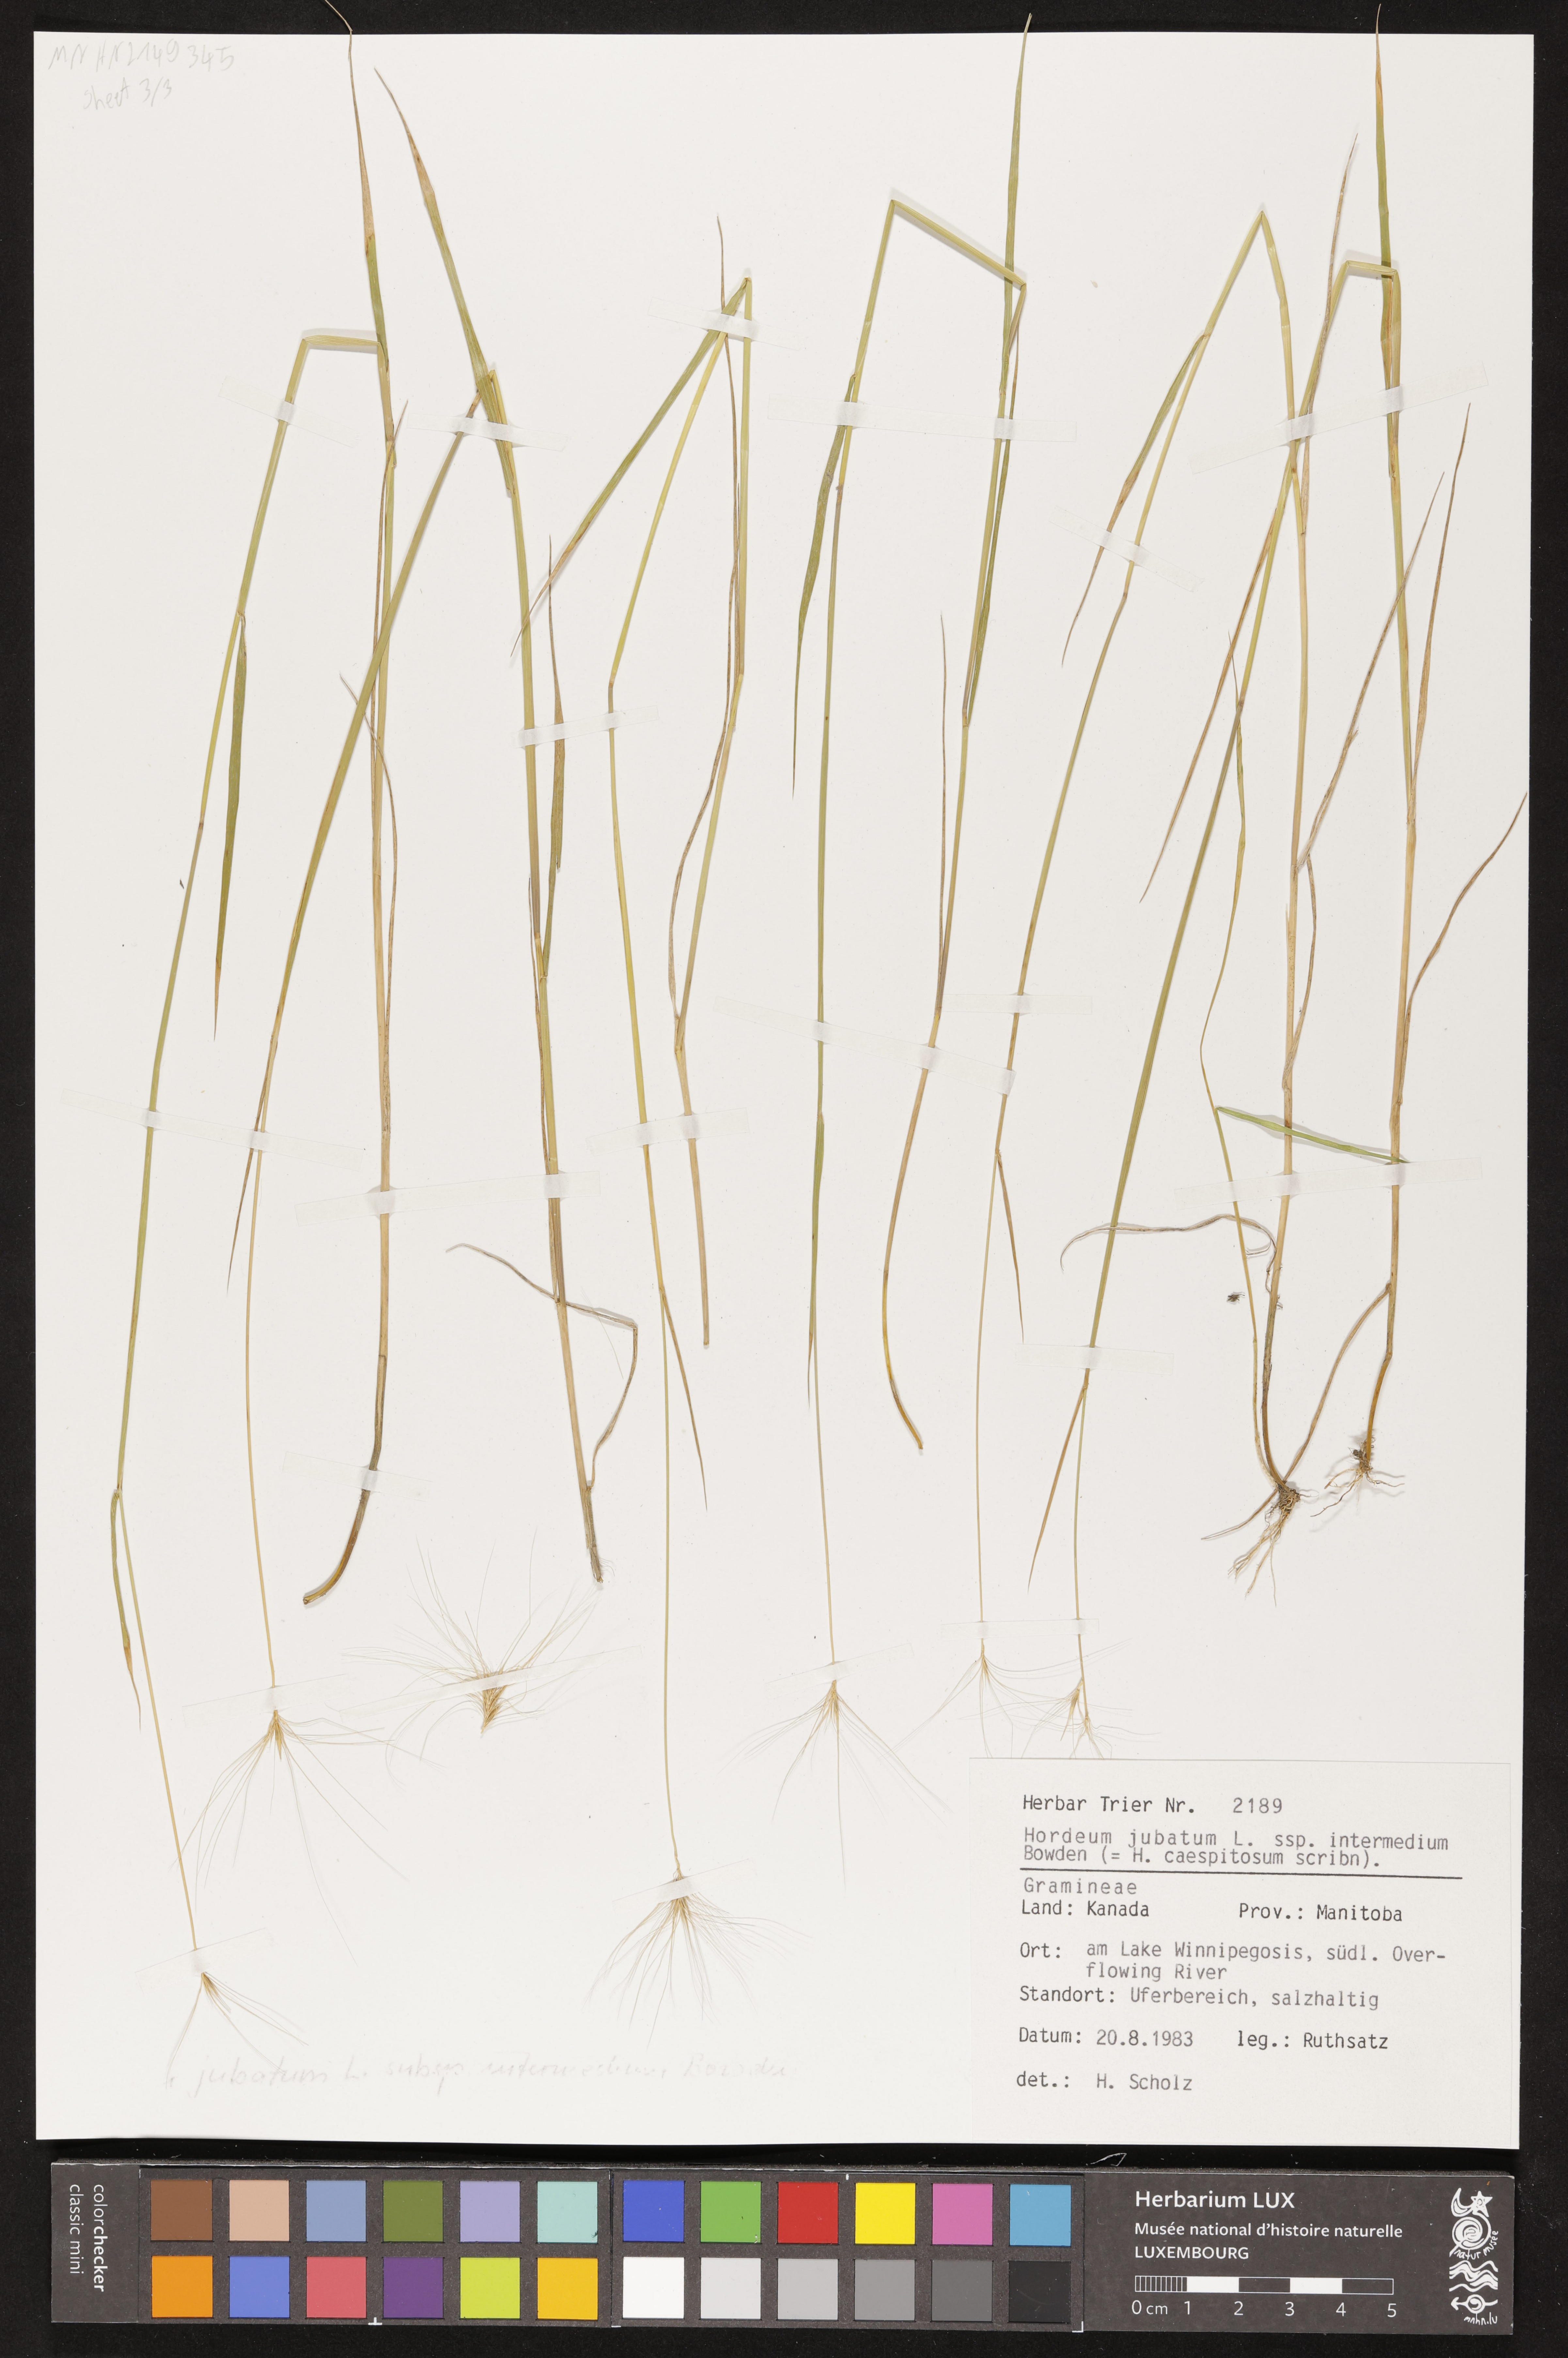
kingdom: Plantae
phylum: Tracheophyta
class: Liliopsida
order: Poales
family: Poaceae
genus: Hordeum
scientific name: Hordeum jubatum
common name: Foxtail barley
